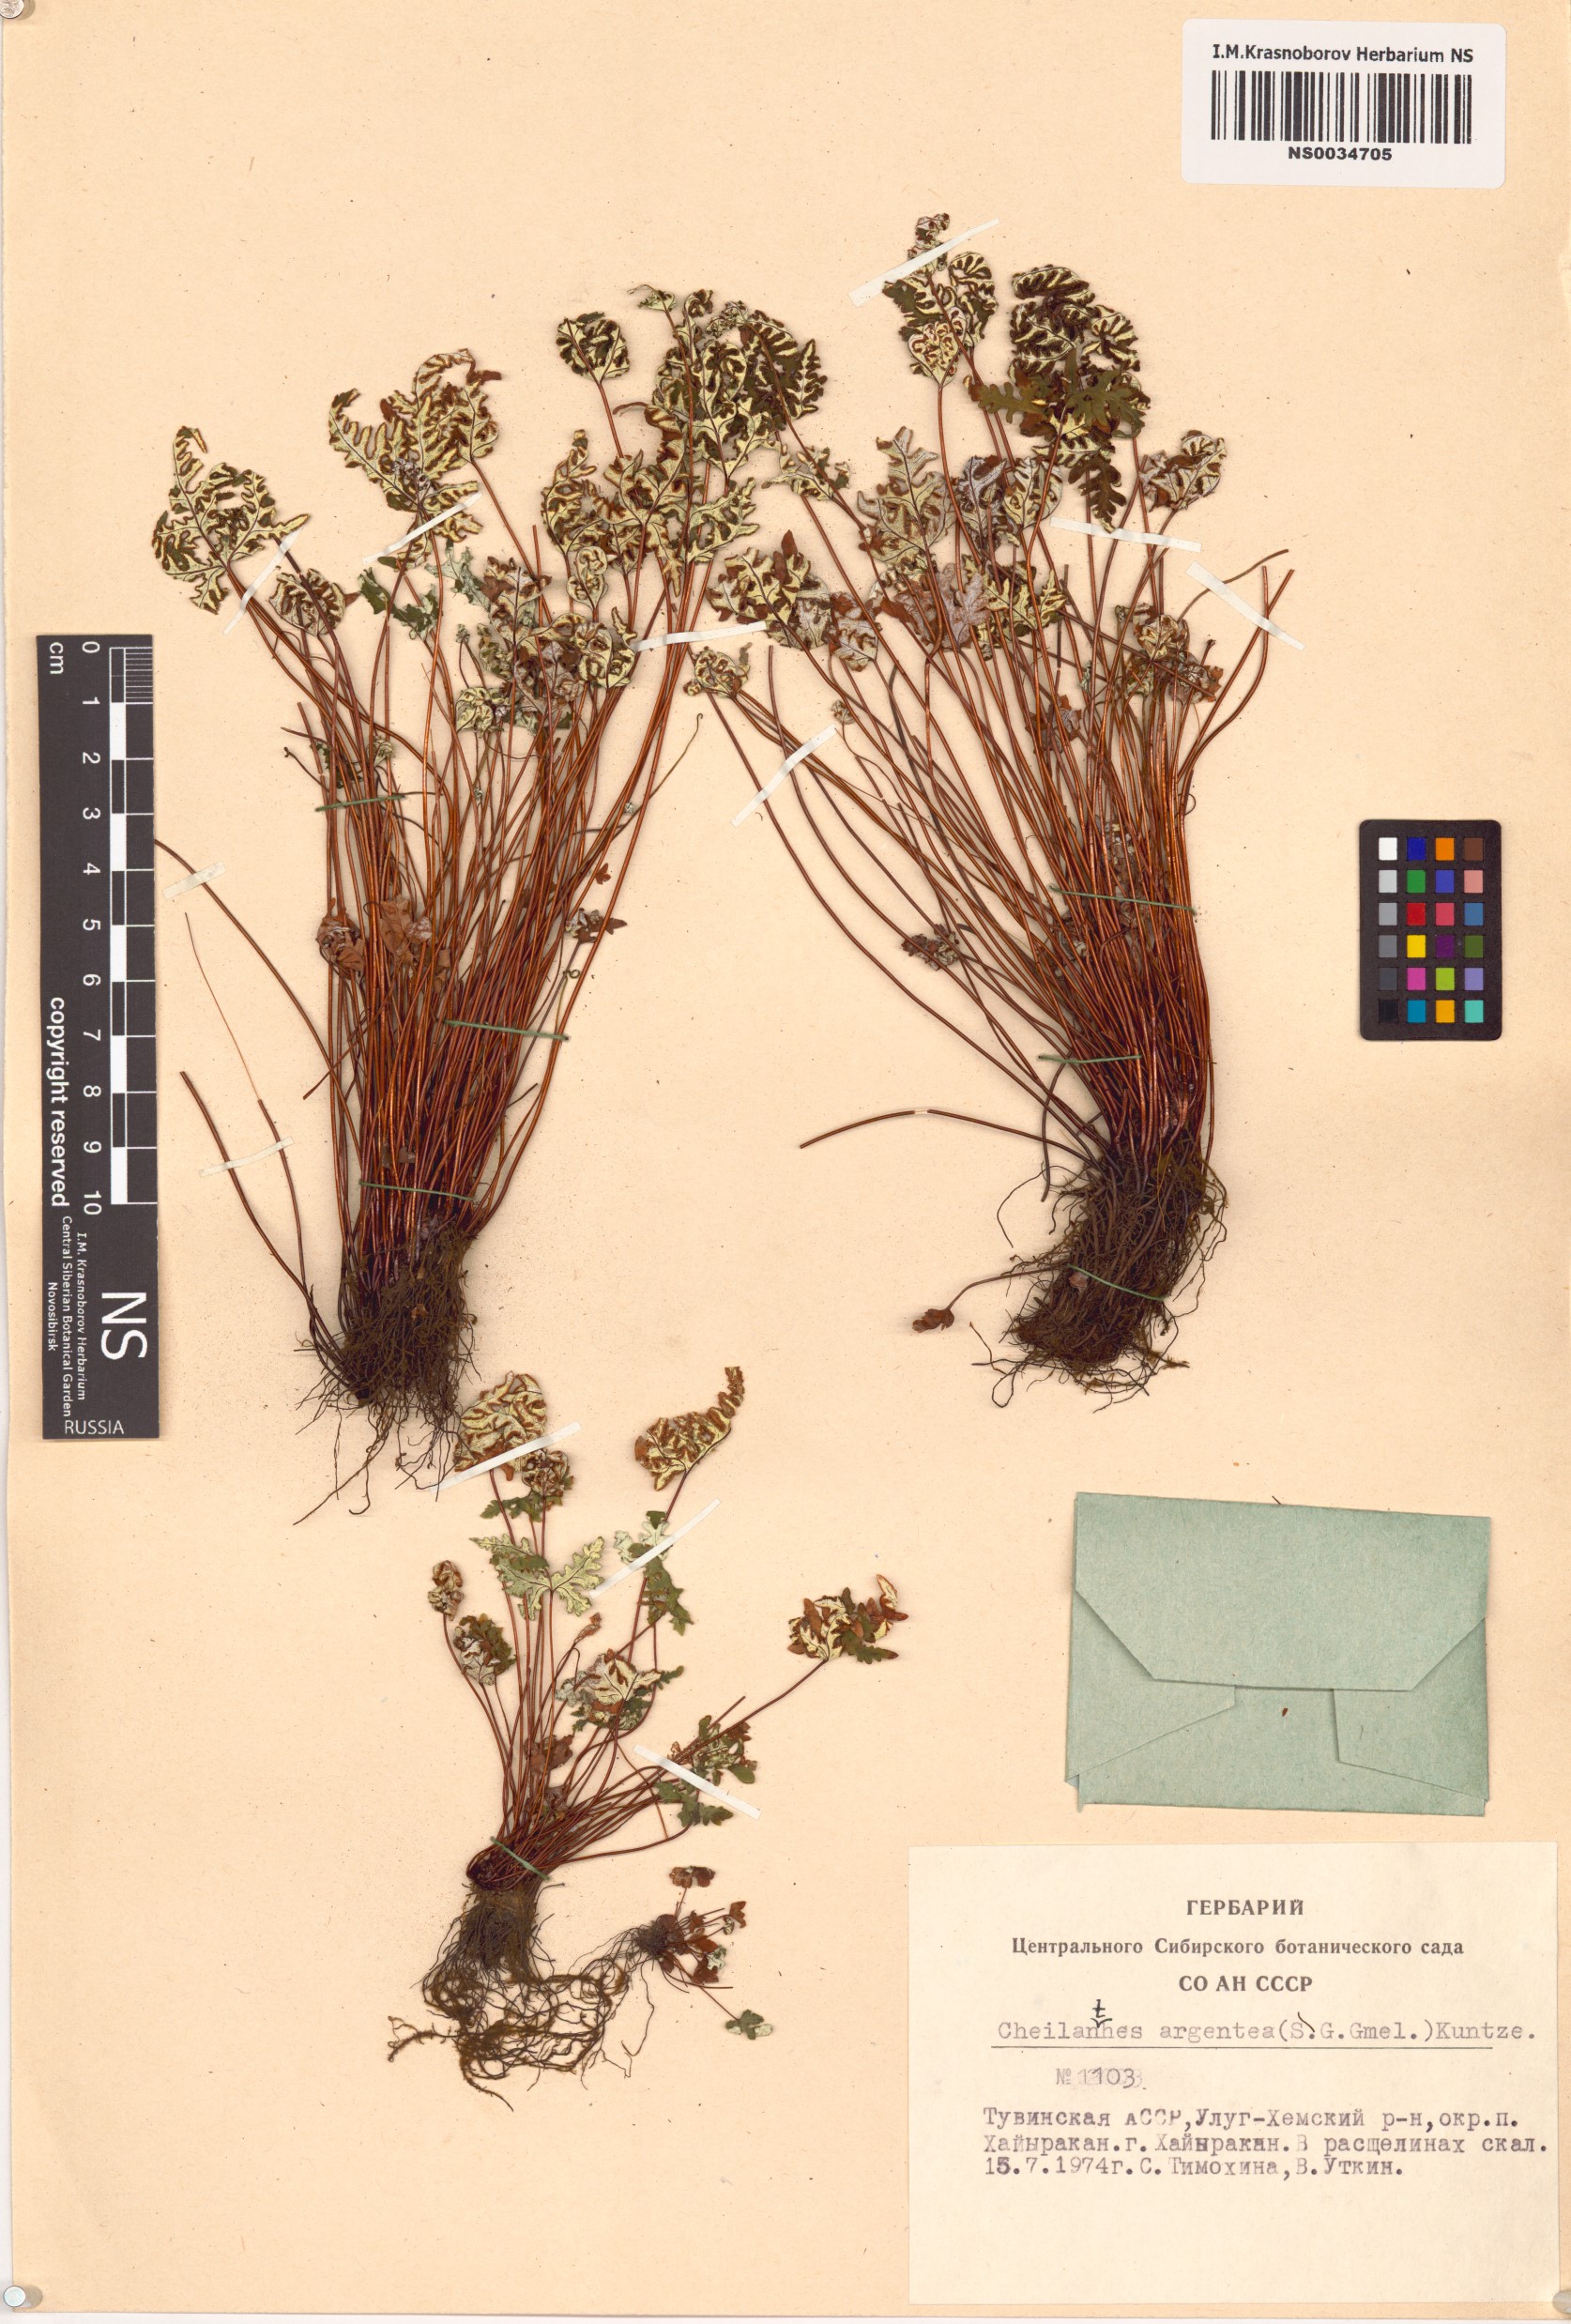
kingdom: Plantae
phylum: Tracheophyta
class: Polypodiopsida
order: Polypodiales
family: Pteridaceae
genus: Aleuritopteris
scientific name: Aleuritopteris argentea
